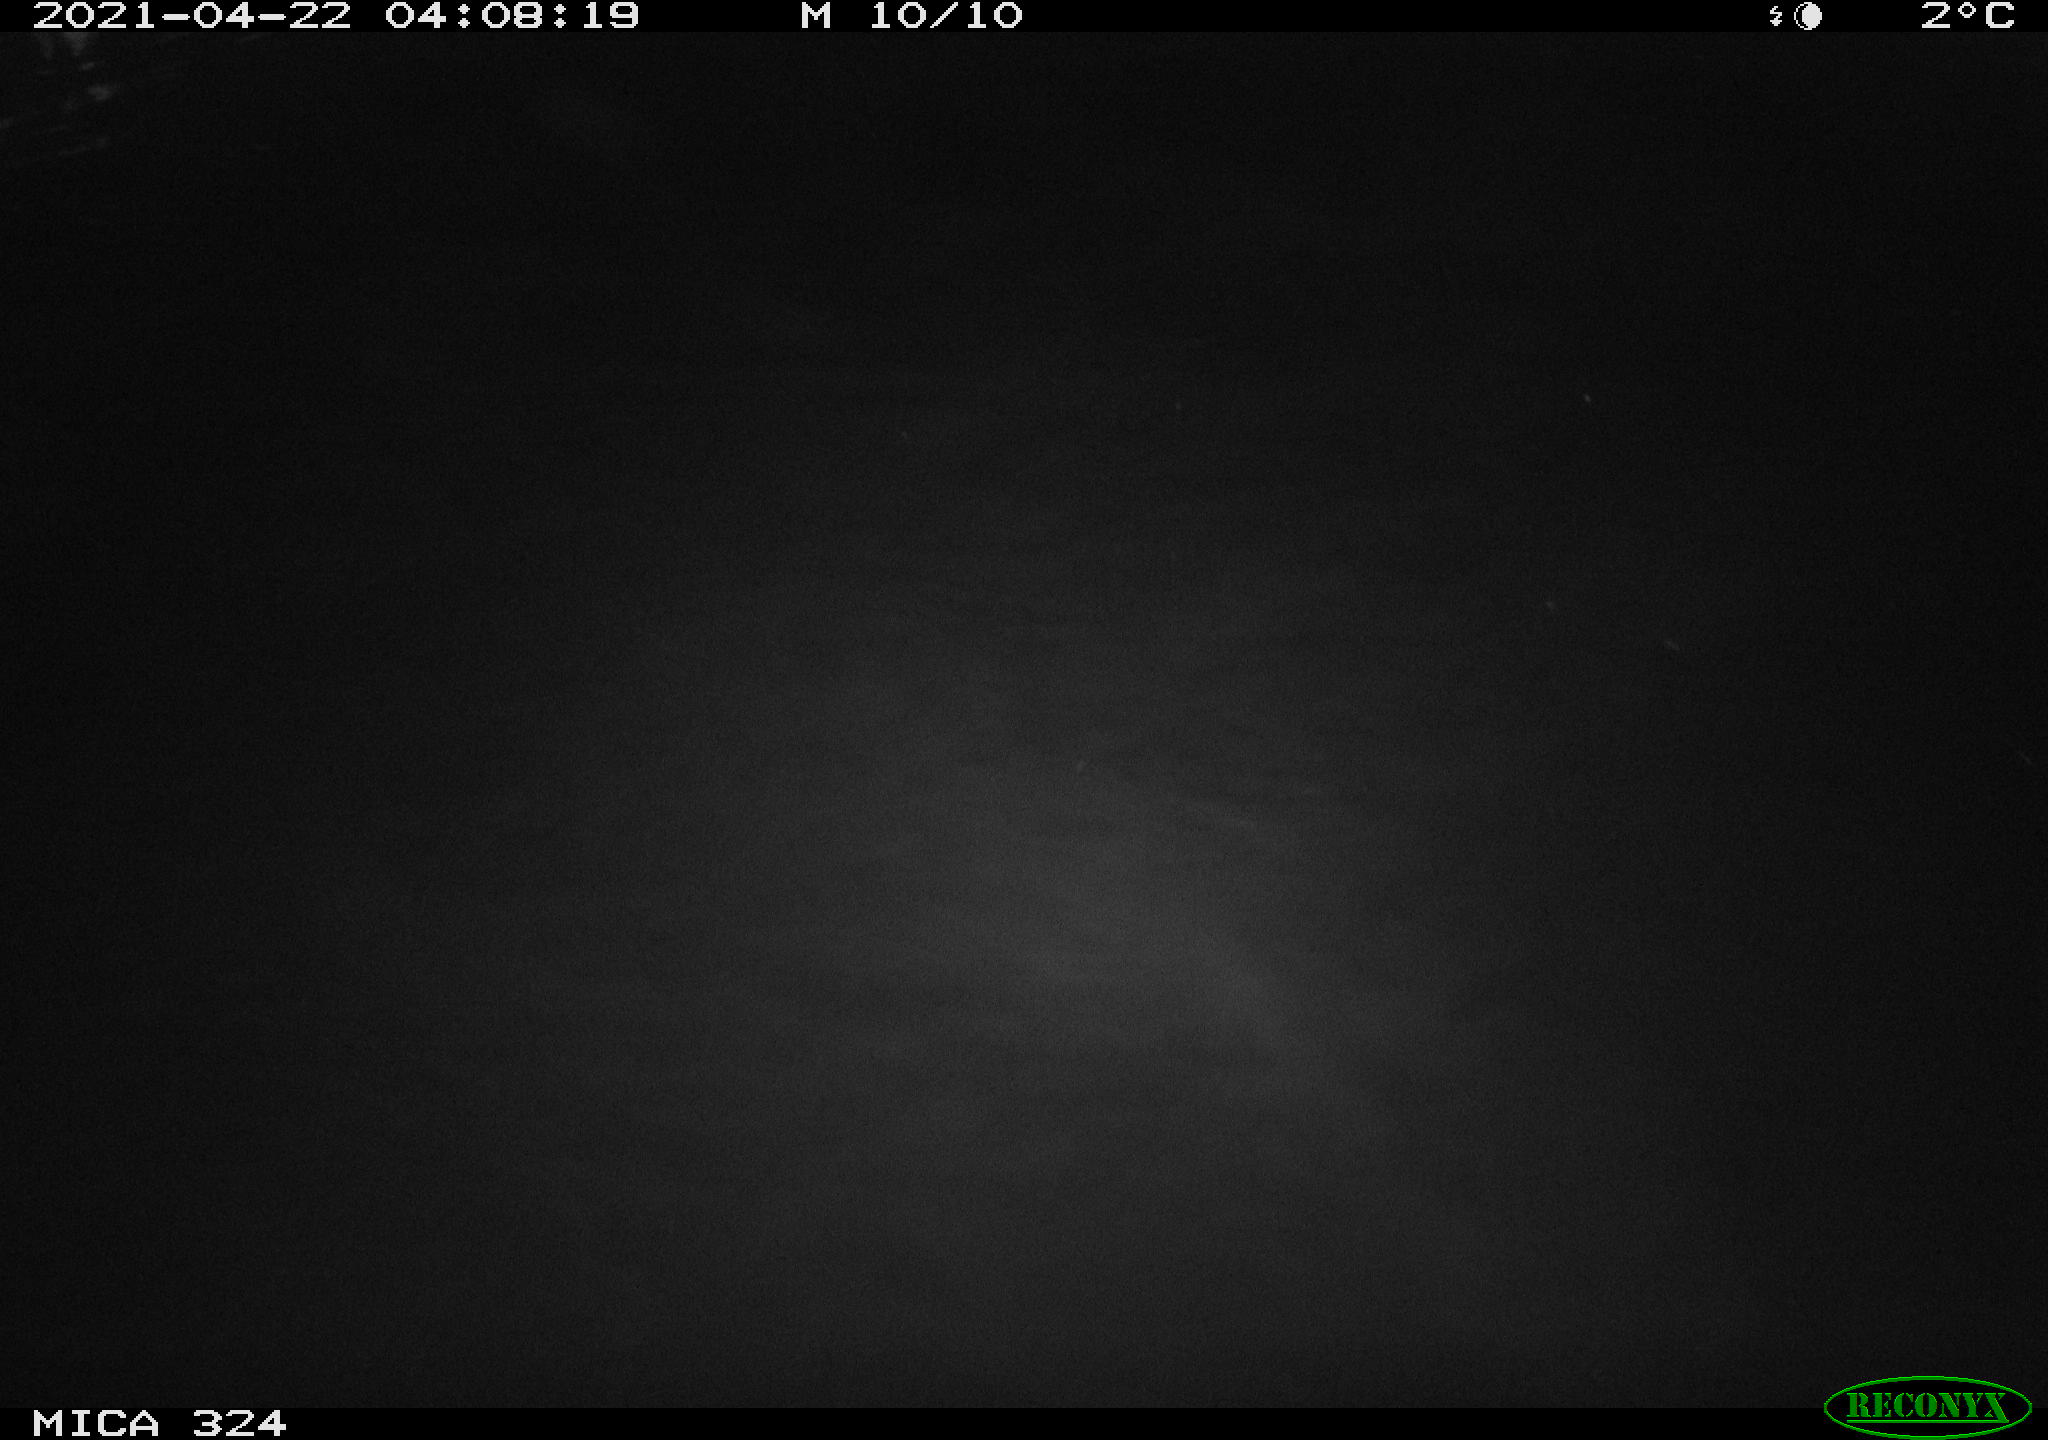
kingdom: Animalia
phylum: Chordata
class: Aves
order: Anseriformes
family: Anatidae
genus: Anas
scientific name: Anas platyrhynchos
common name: Mallard
